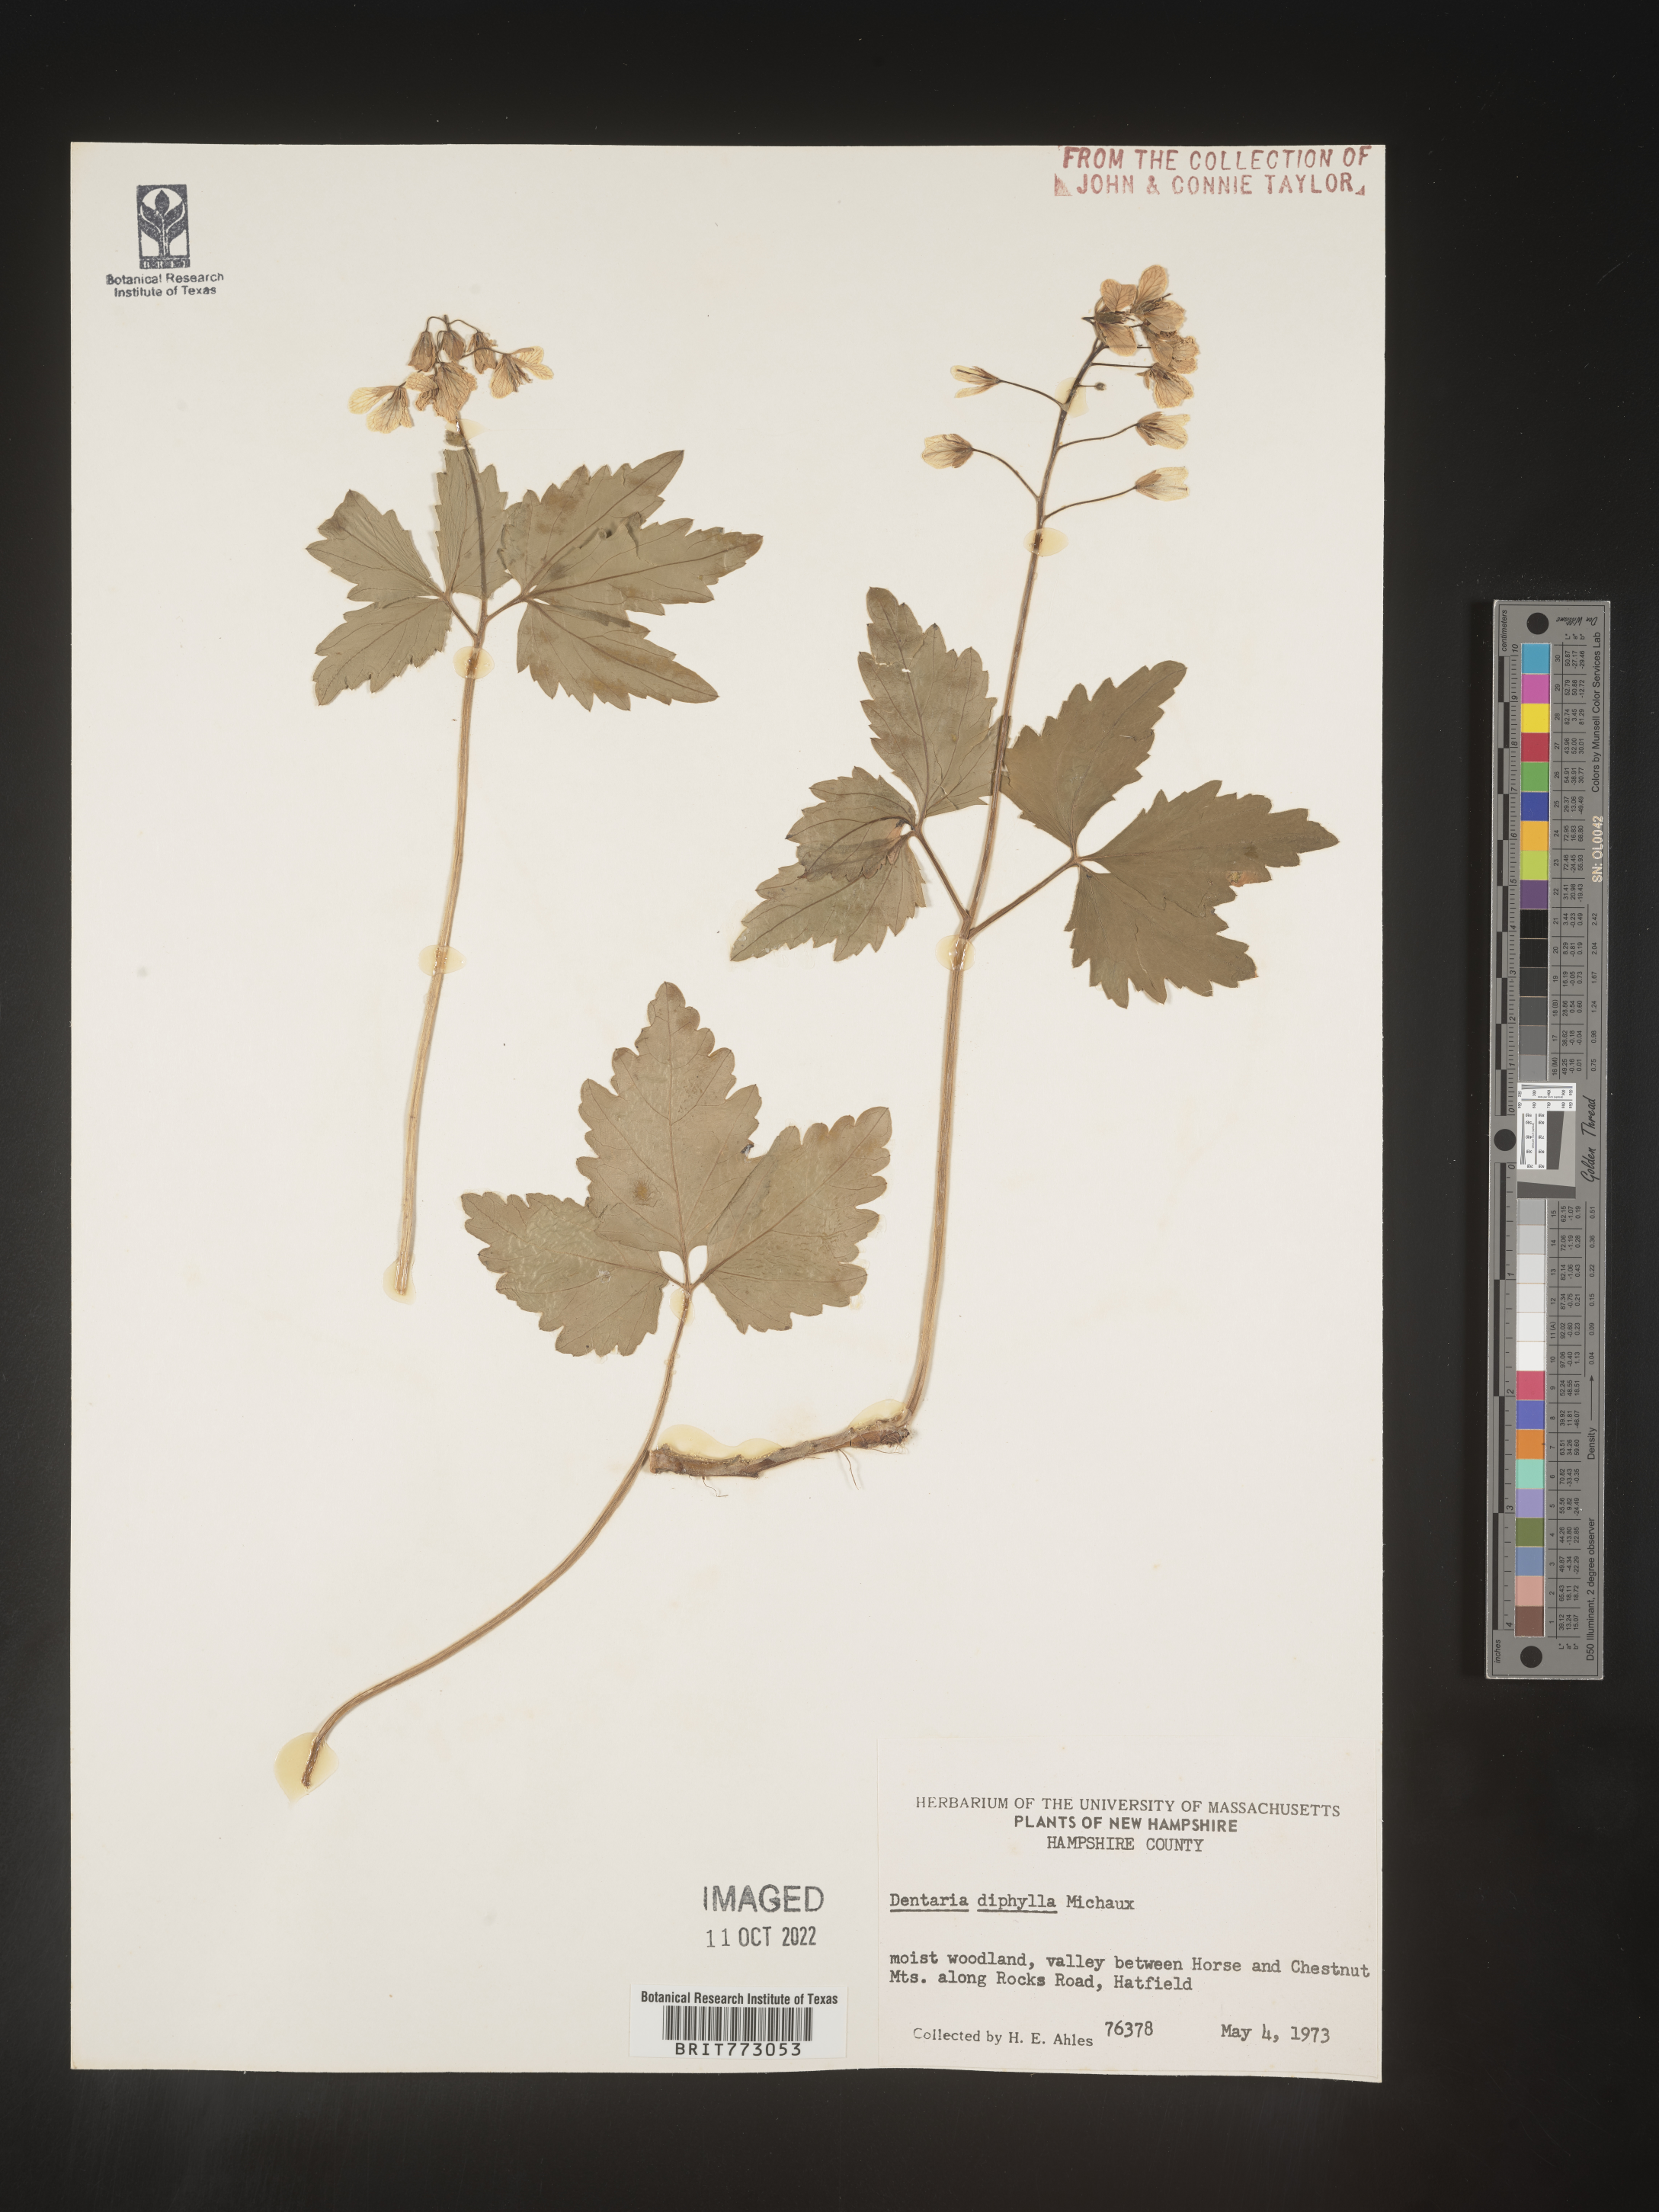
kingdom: Plantae
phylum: Tracheophyta
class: Magnoliopsida
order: Brassicales
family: Brassicaceae
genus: Cardamine
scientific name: Cardamine diphylla
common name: Broad-leaved toothwort
